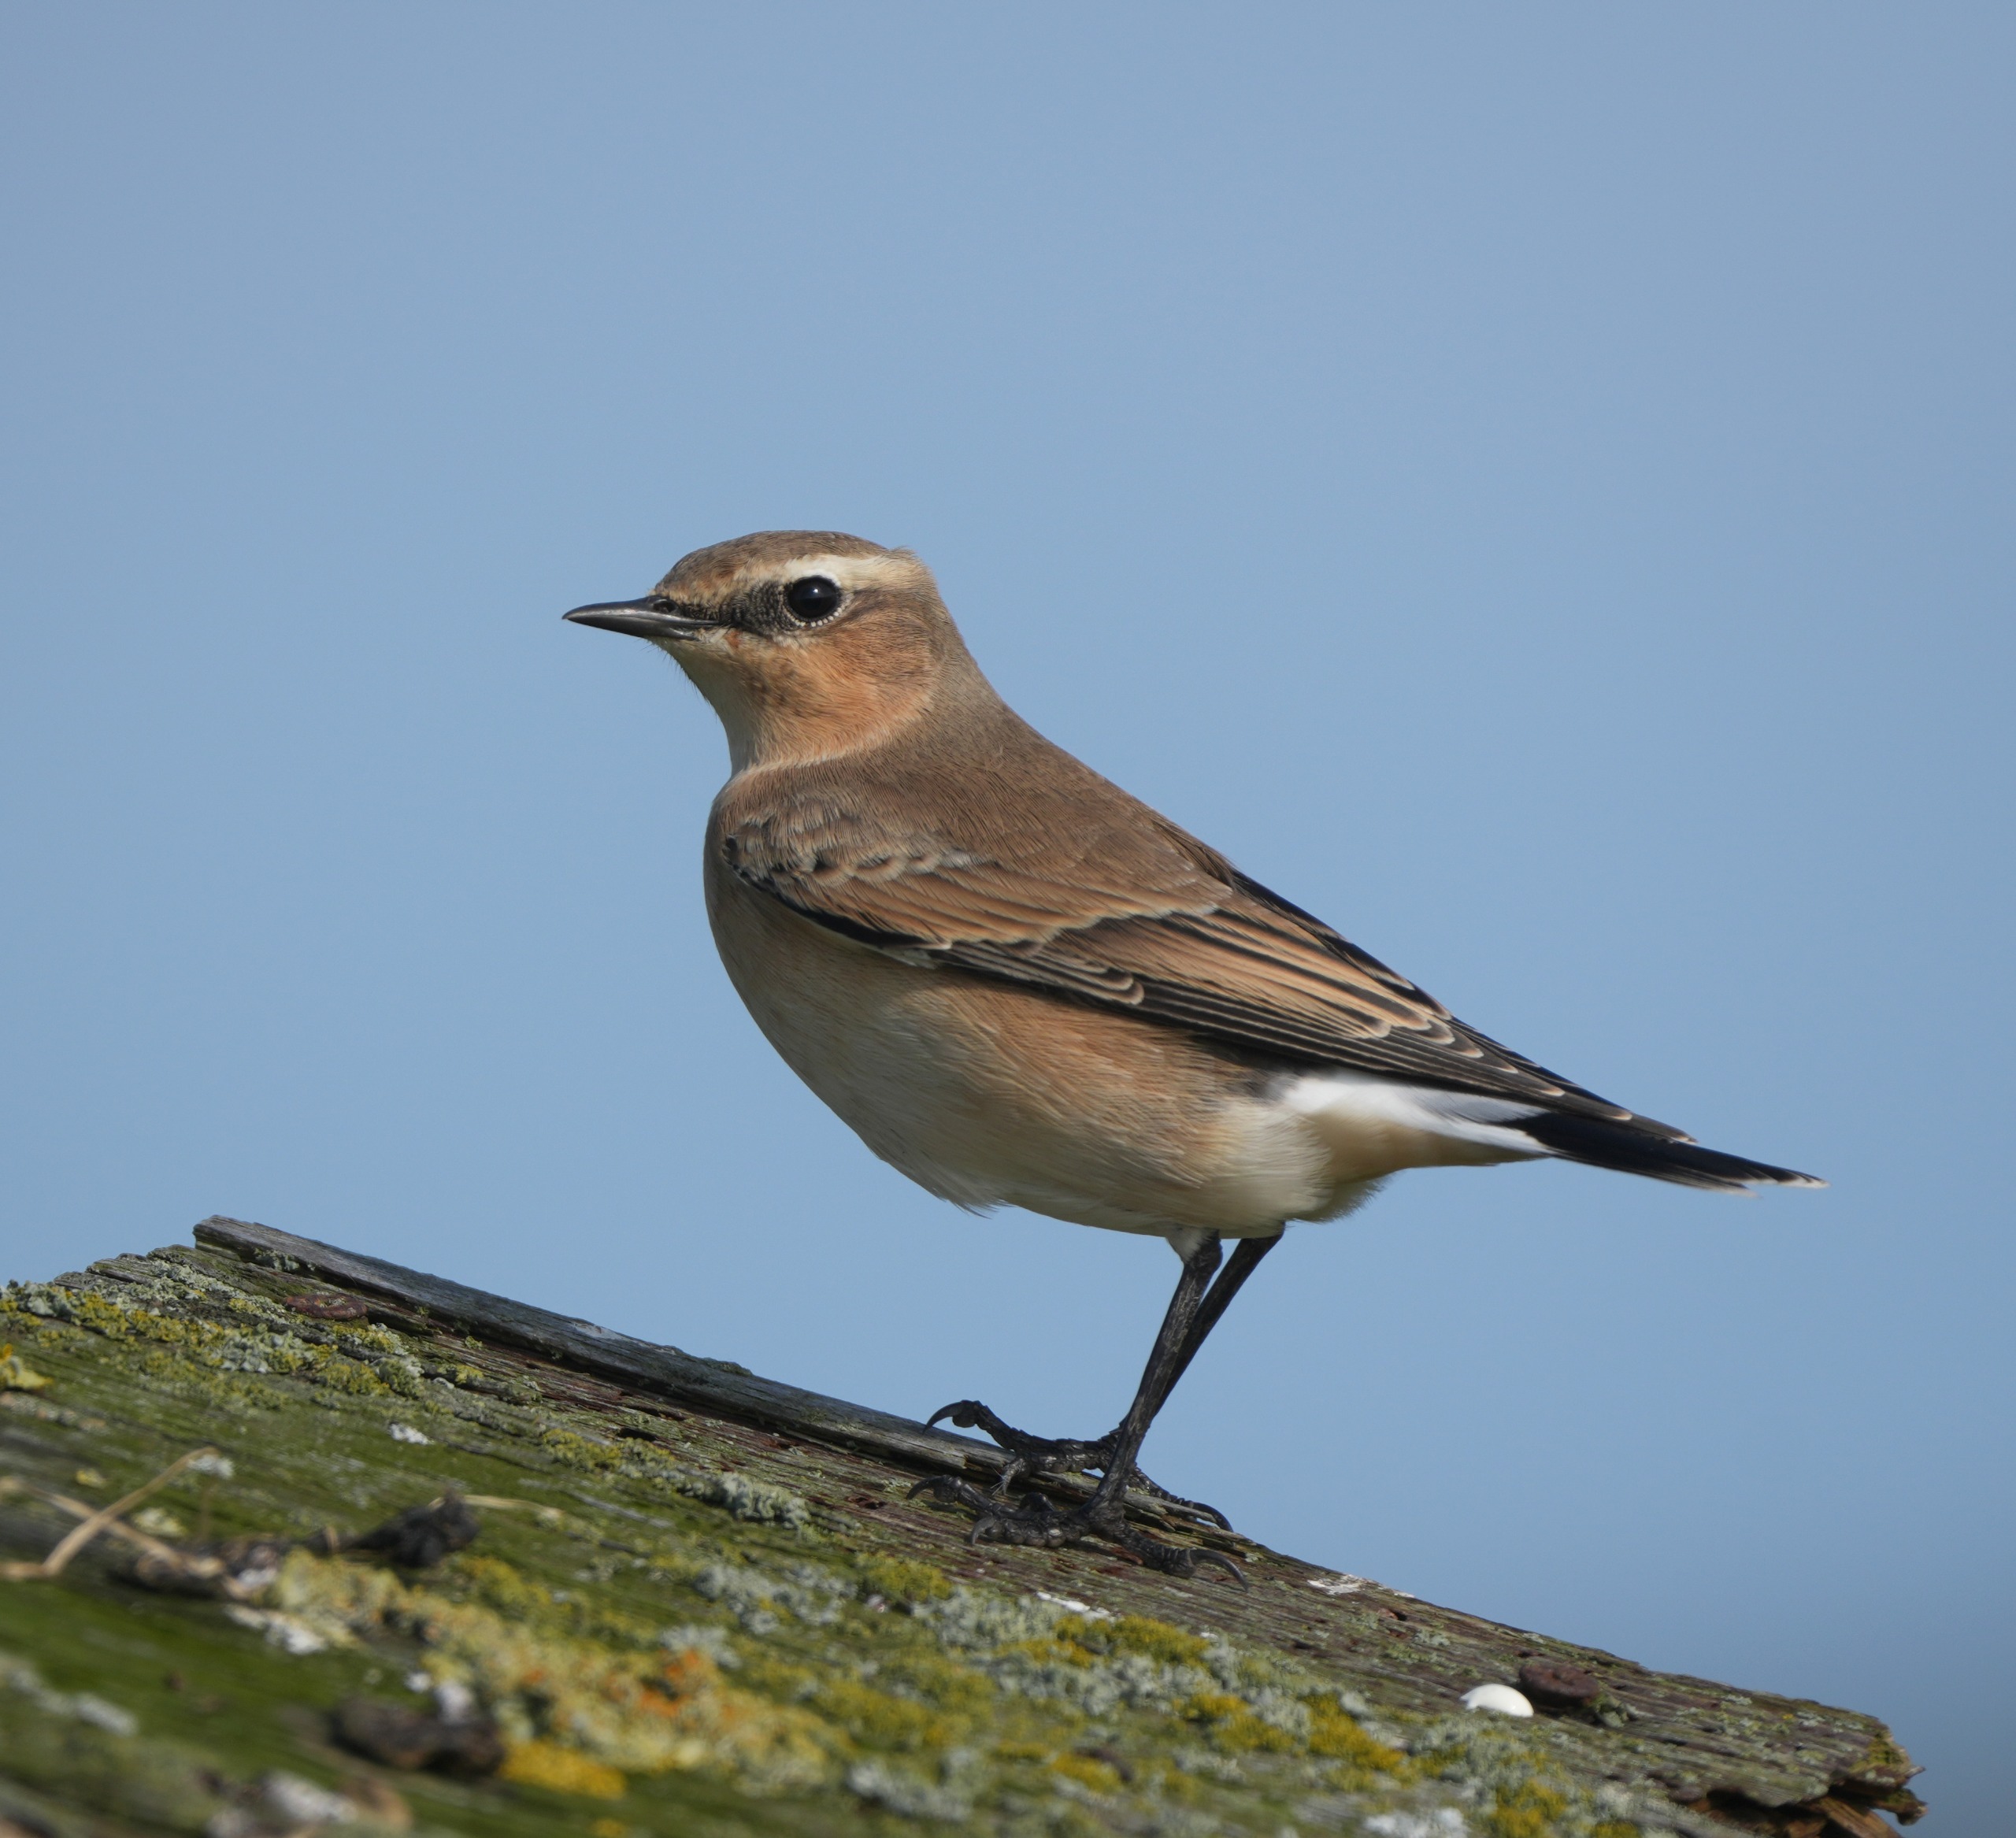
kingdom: Animalia
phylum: Chordata
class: Aves
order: Passeriformes
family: Muscicapidae
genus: Oenanthe
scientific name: Oenanthe oenanthe
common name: Stenpikker
